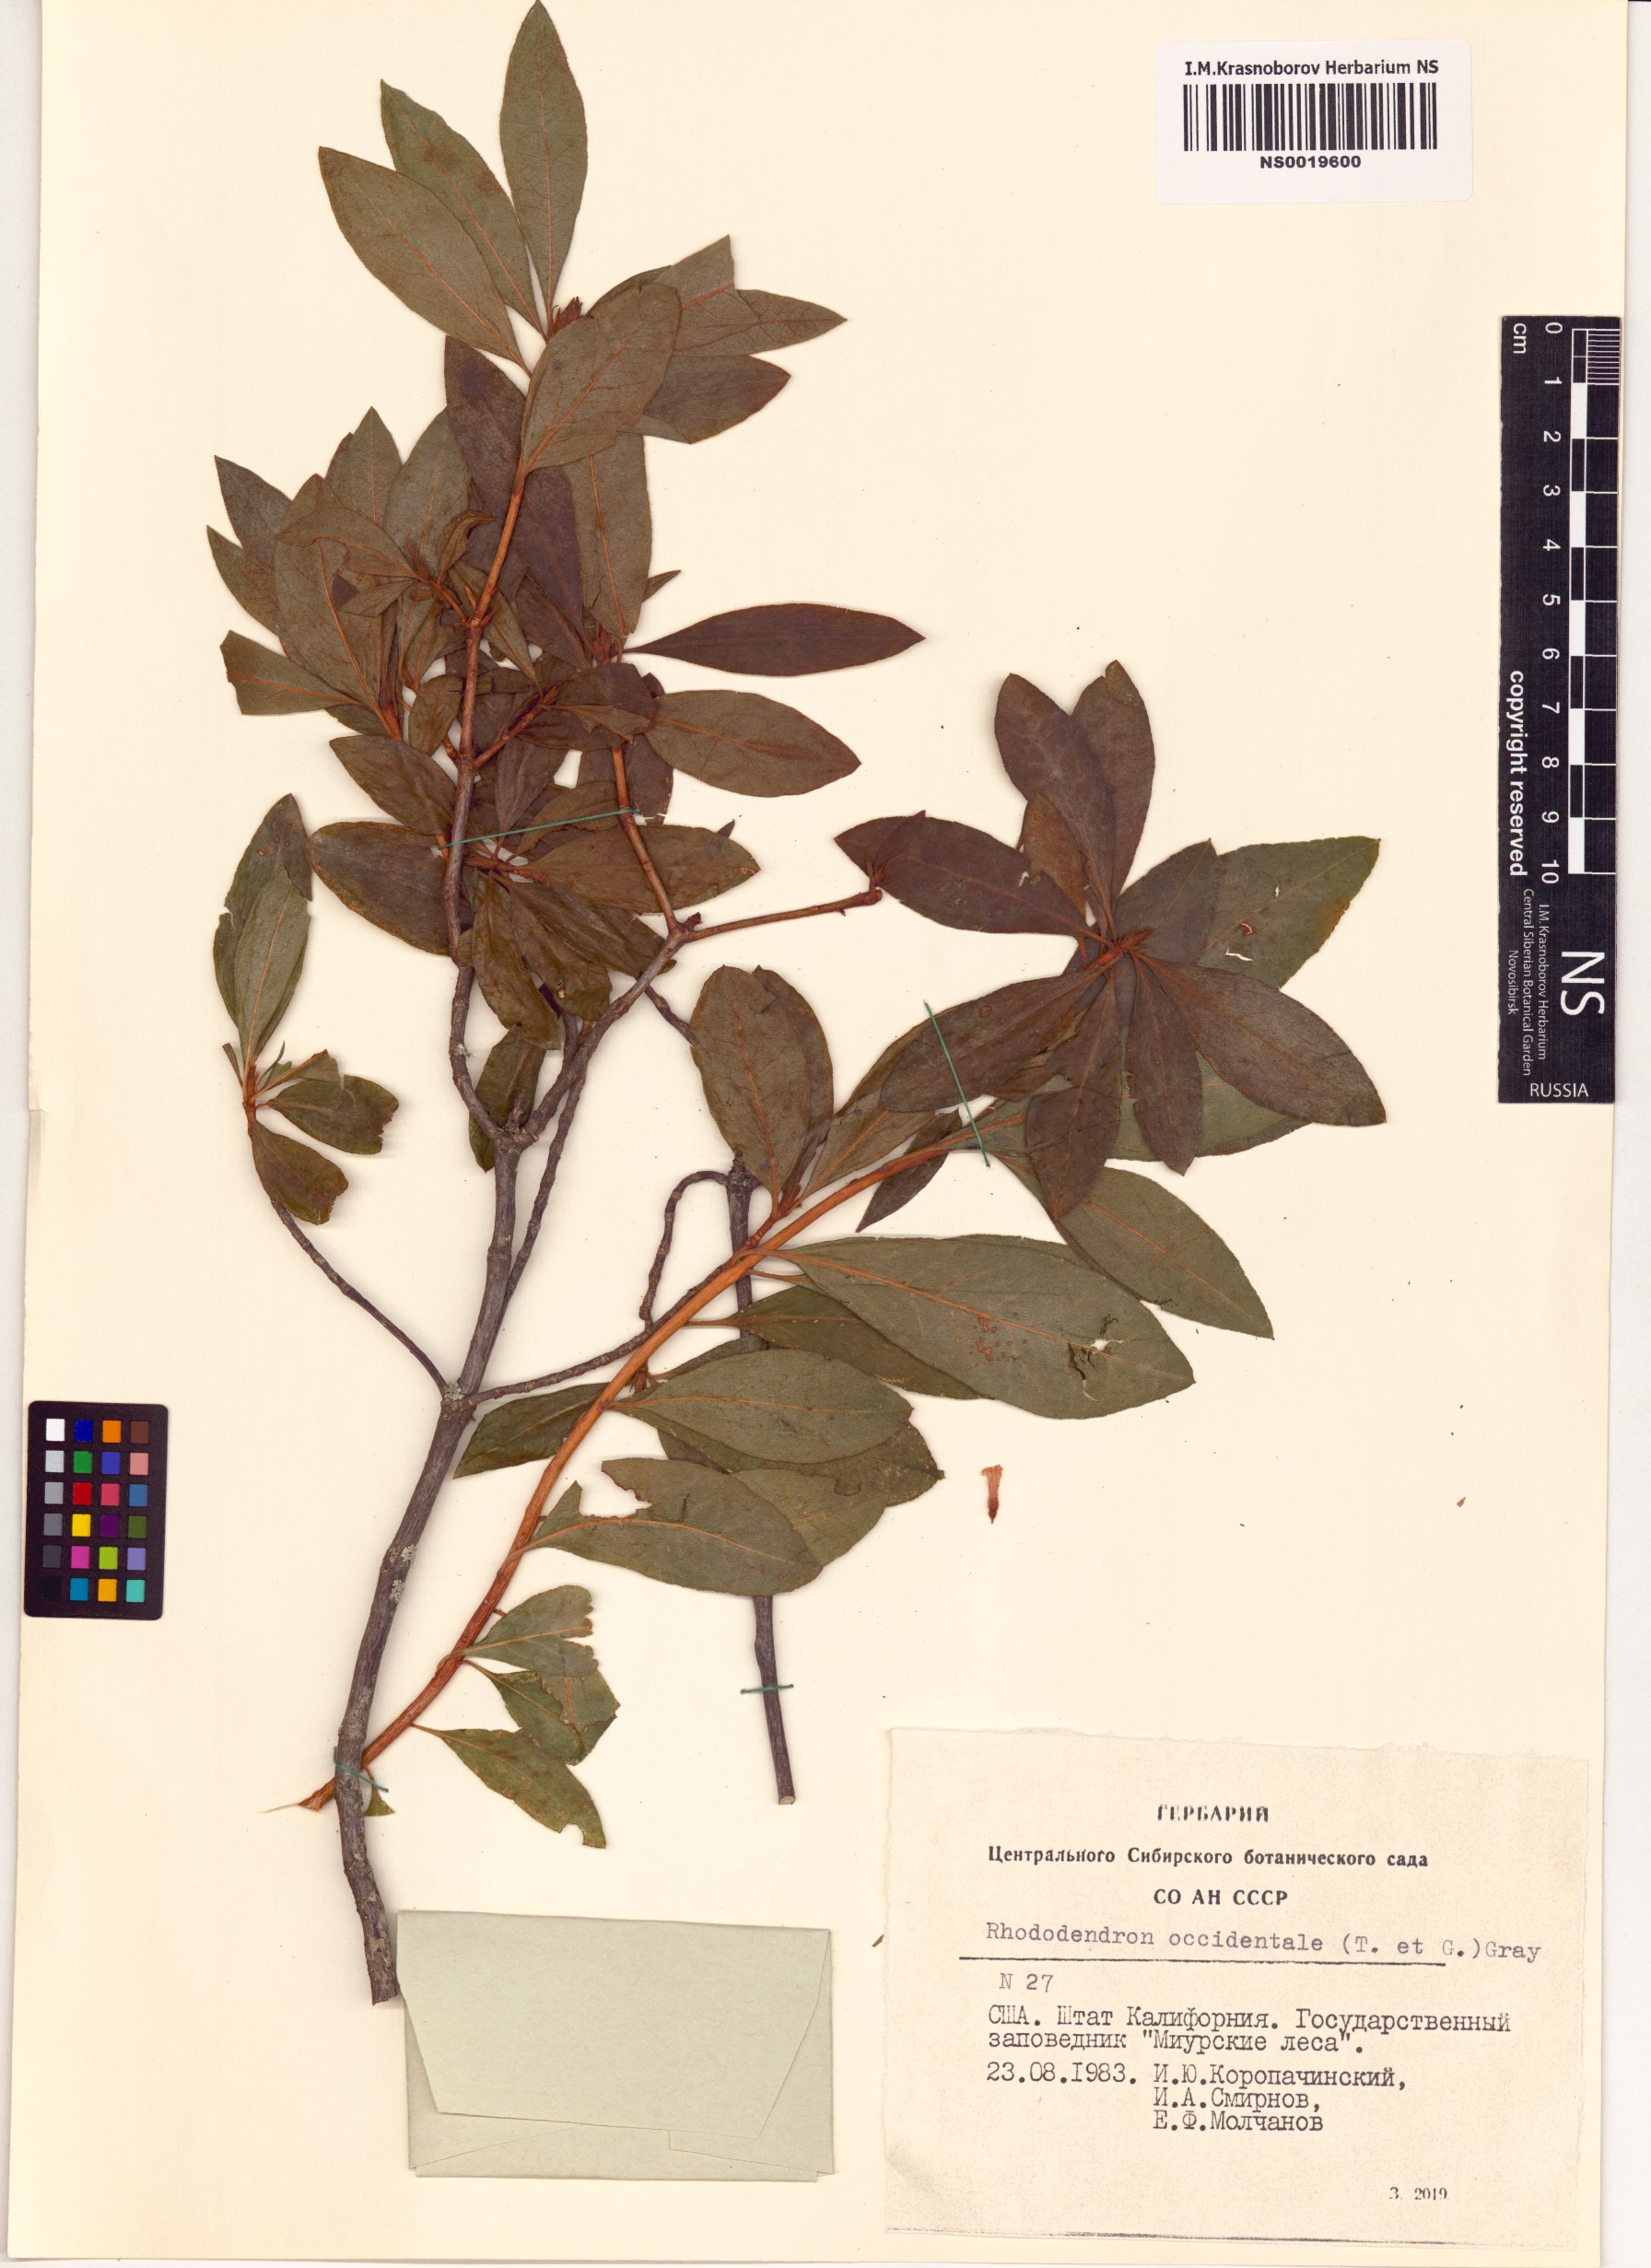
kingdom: Plantae
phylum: Tracheophyta
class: Magnoliopsida
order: Ericales
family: Ericaceae
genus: Rhododendron
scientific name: Rhododendron occidentale
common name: Western azalea
